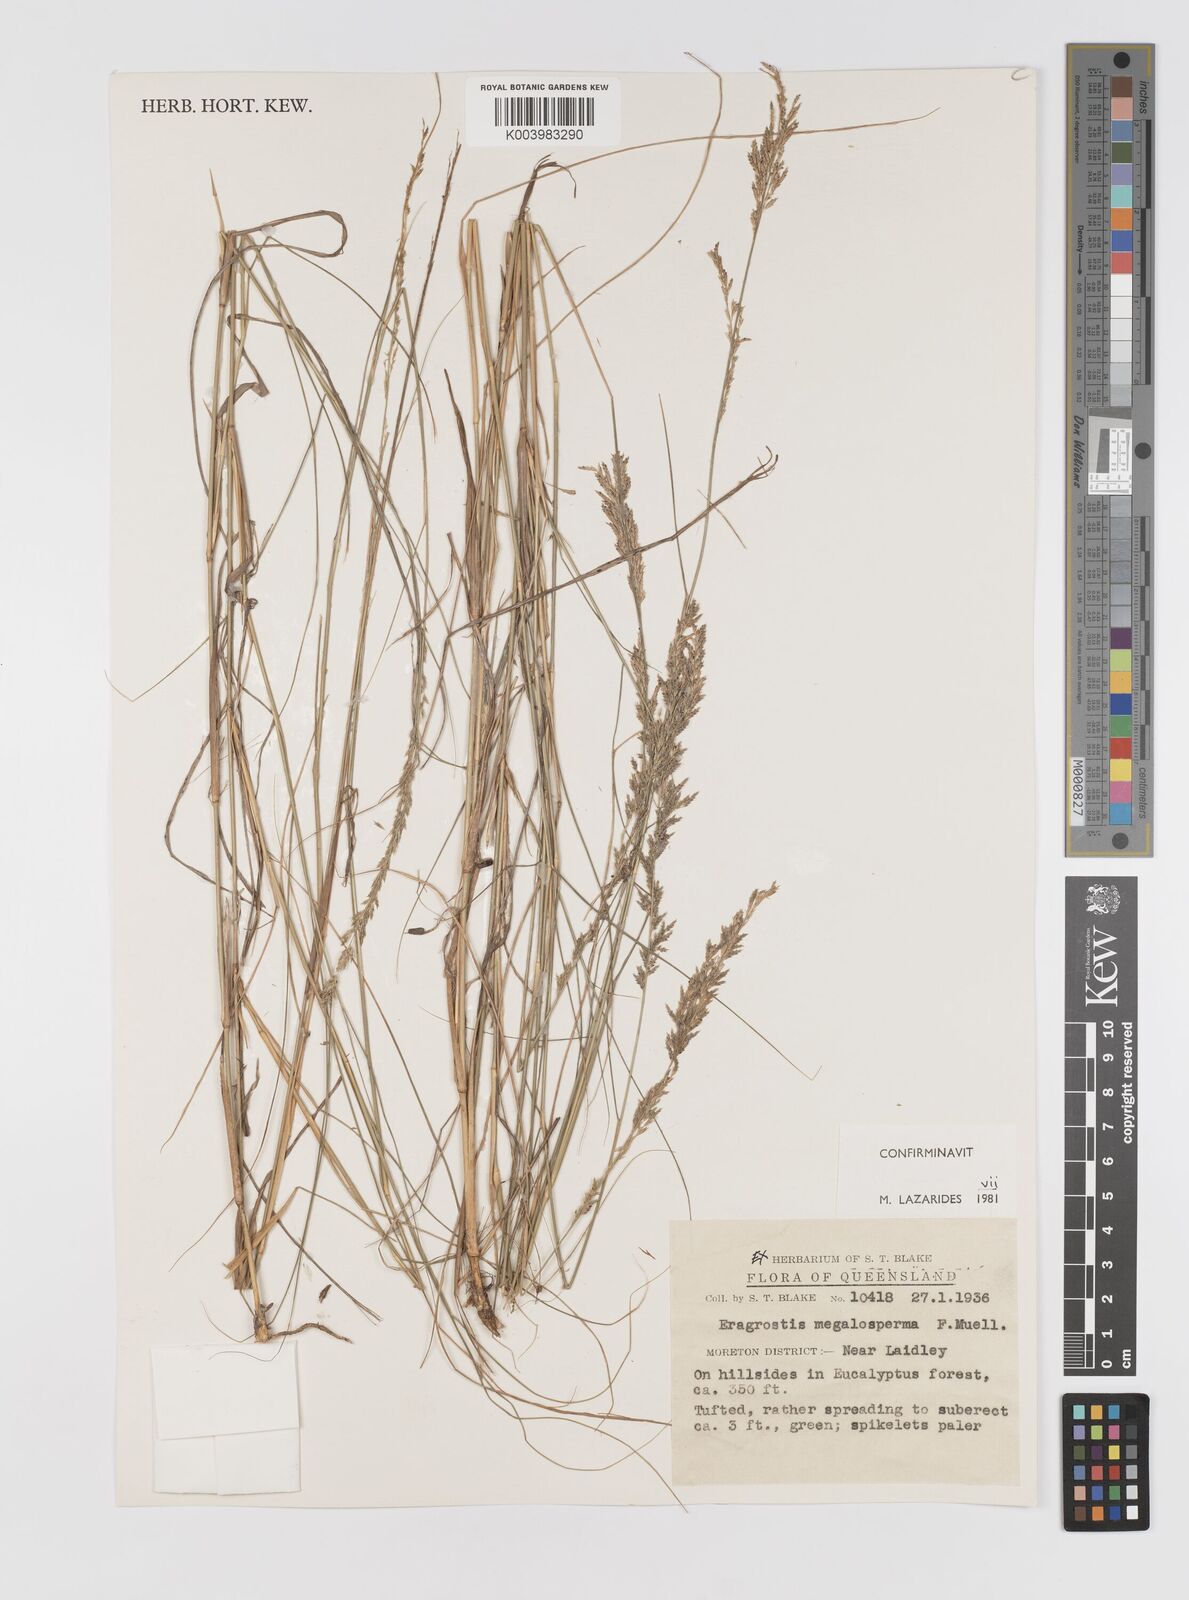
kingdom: Plantae
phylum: Tracheophyta
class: Liliopsida
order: Poales
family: Poaceae
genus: Sporobolus
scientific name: Sporobolus megalospermus
